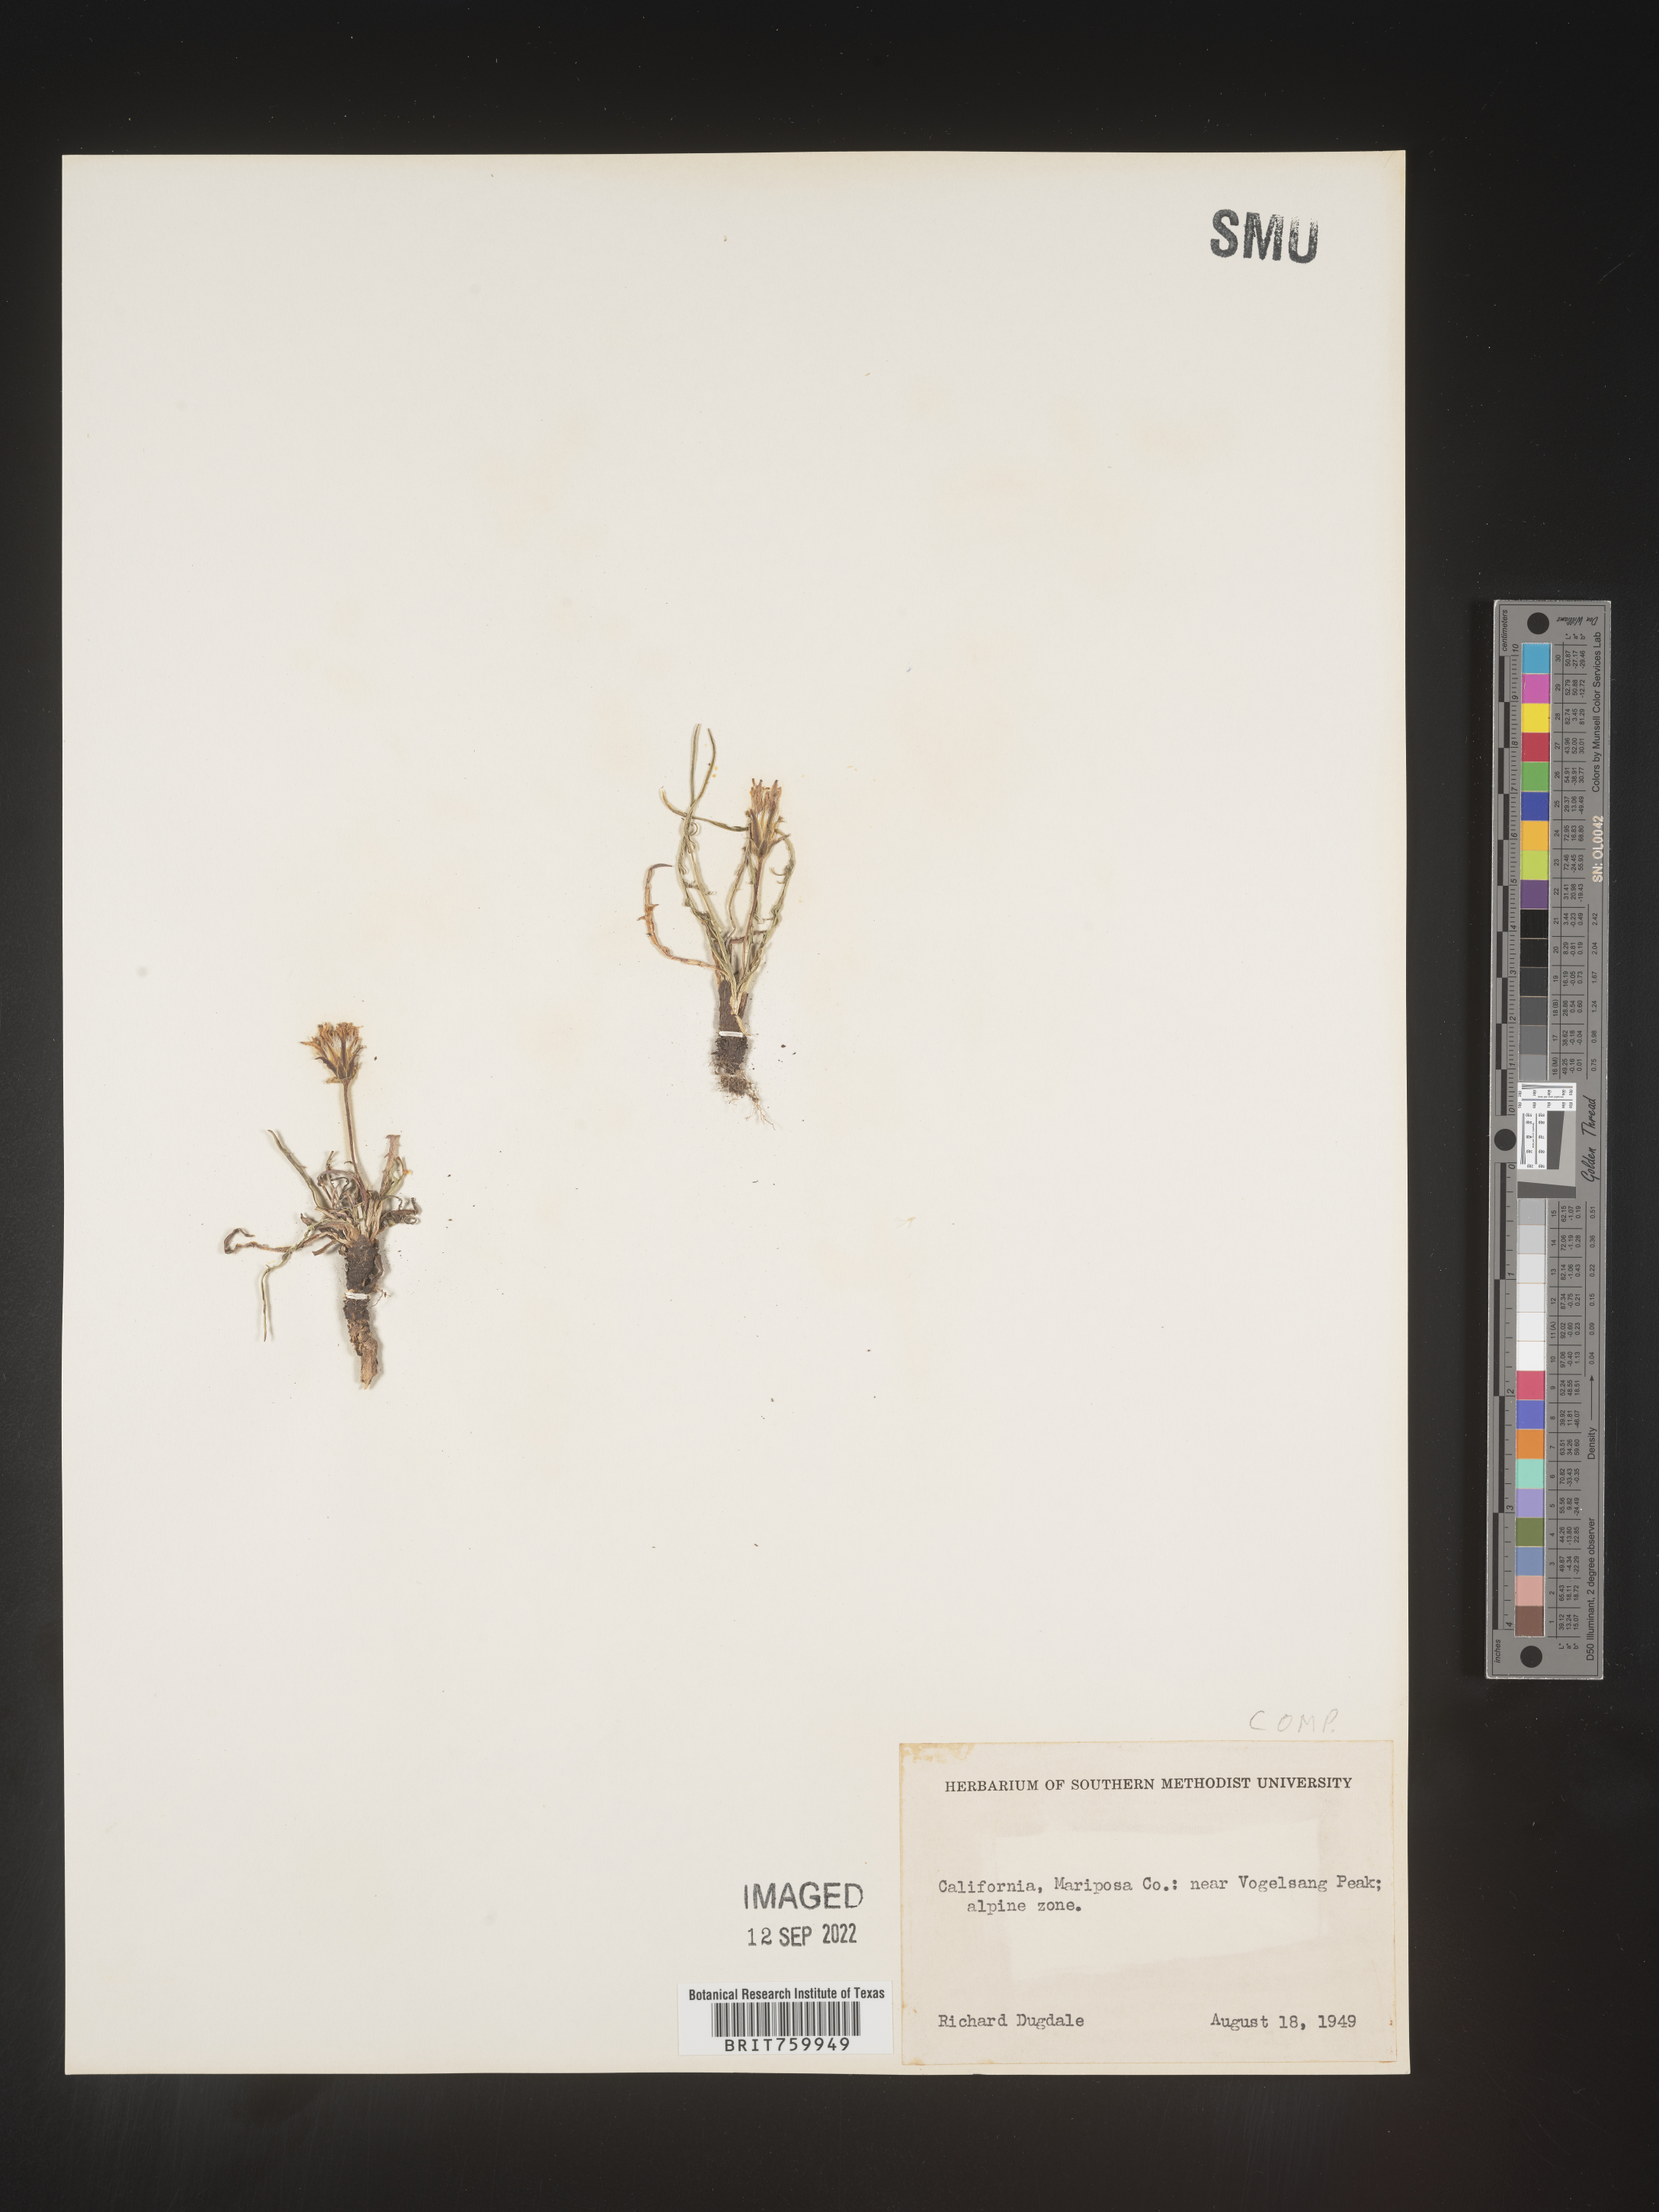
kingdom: Plantae
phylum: Tracheophyta
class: Magnoliopsida
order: Asterales
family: Asteraceae
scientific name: Asteraceae
